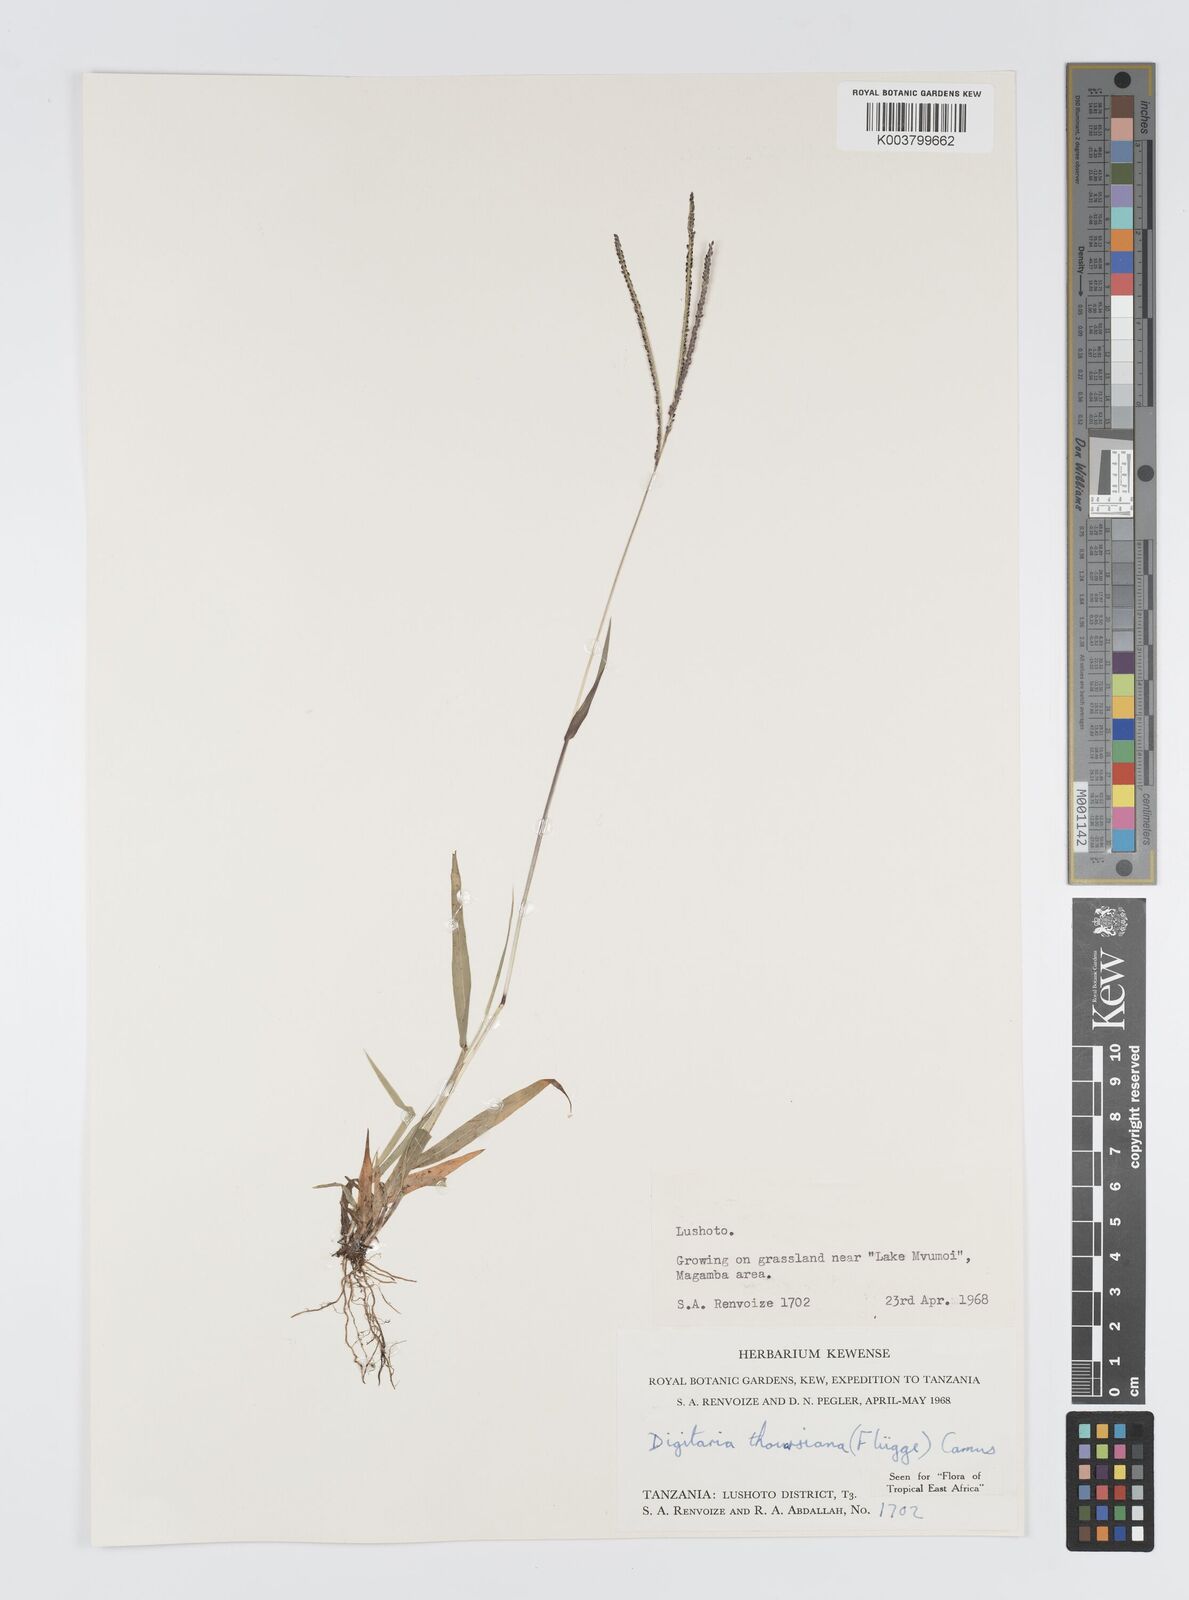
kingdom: Plantae
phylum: Tracheophyta
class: Liliopsida
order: Poales
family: Poaceae
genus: Digitaria
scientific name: Digitaria thouarsiana
